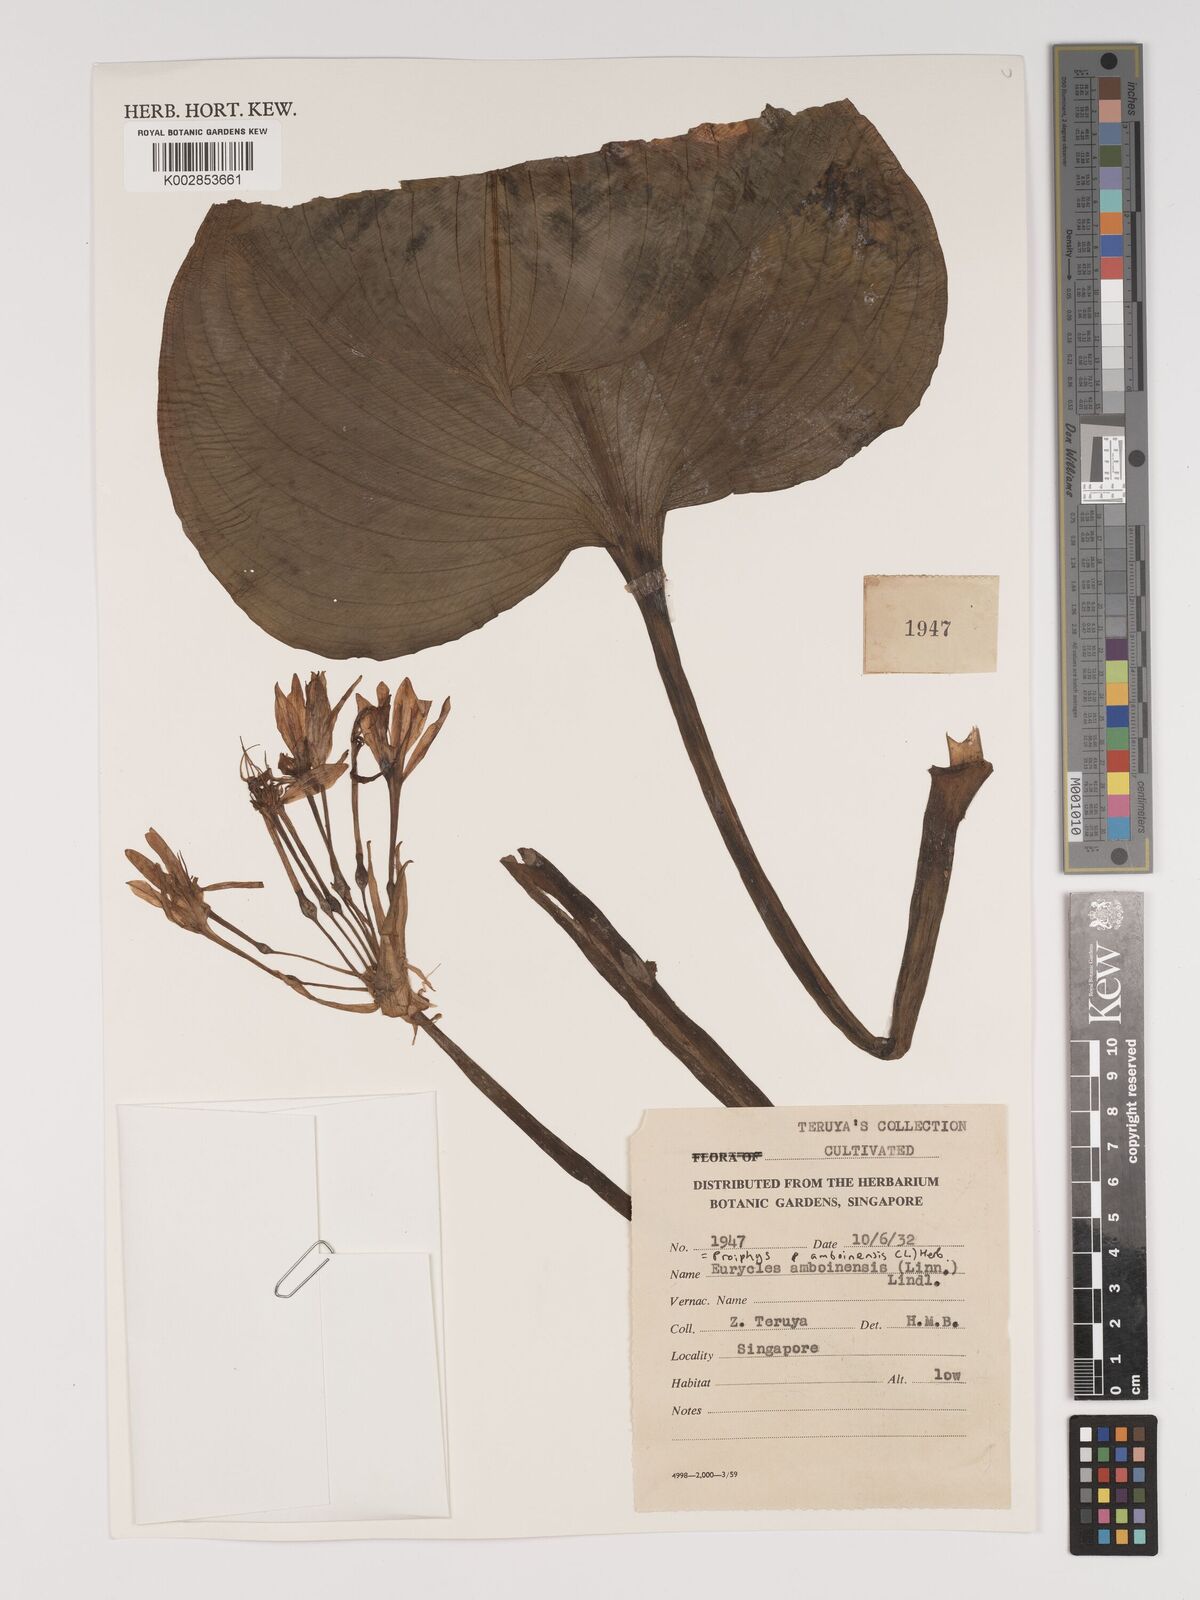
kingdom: Plantae
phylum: Tracheophyta
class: Liliopsida
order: Asparagales
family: Amaryllidaceae
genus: Proiphys
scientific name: Proiphys amboinensis
